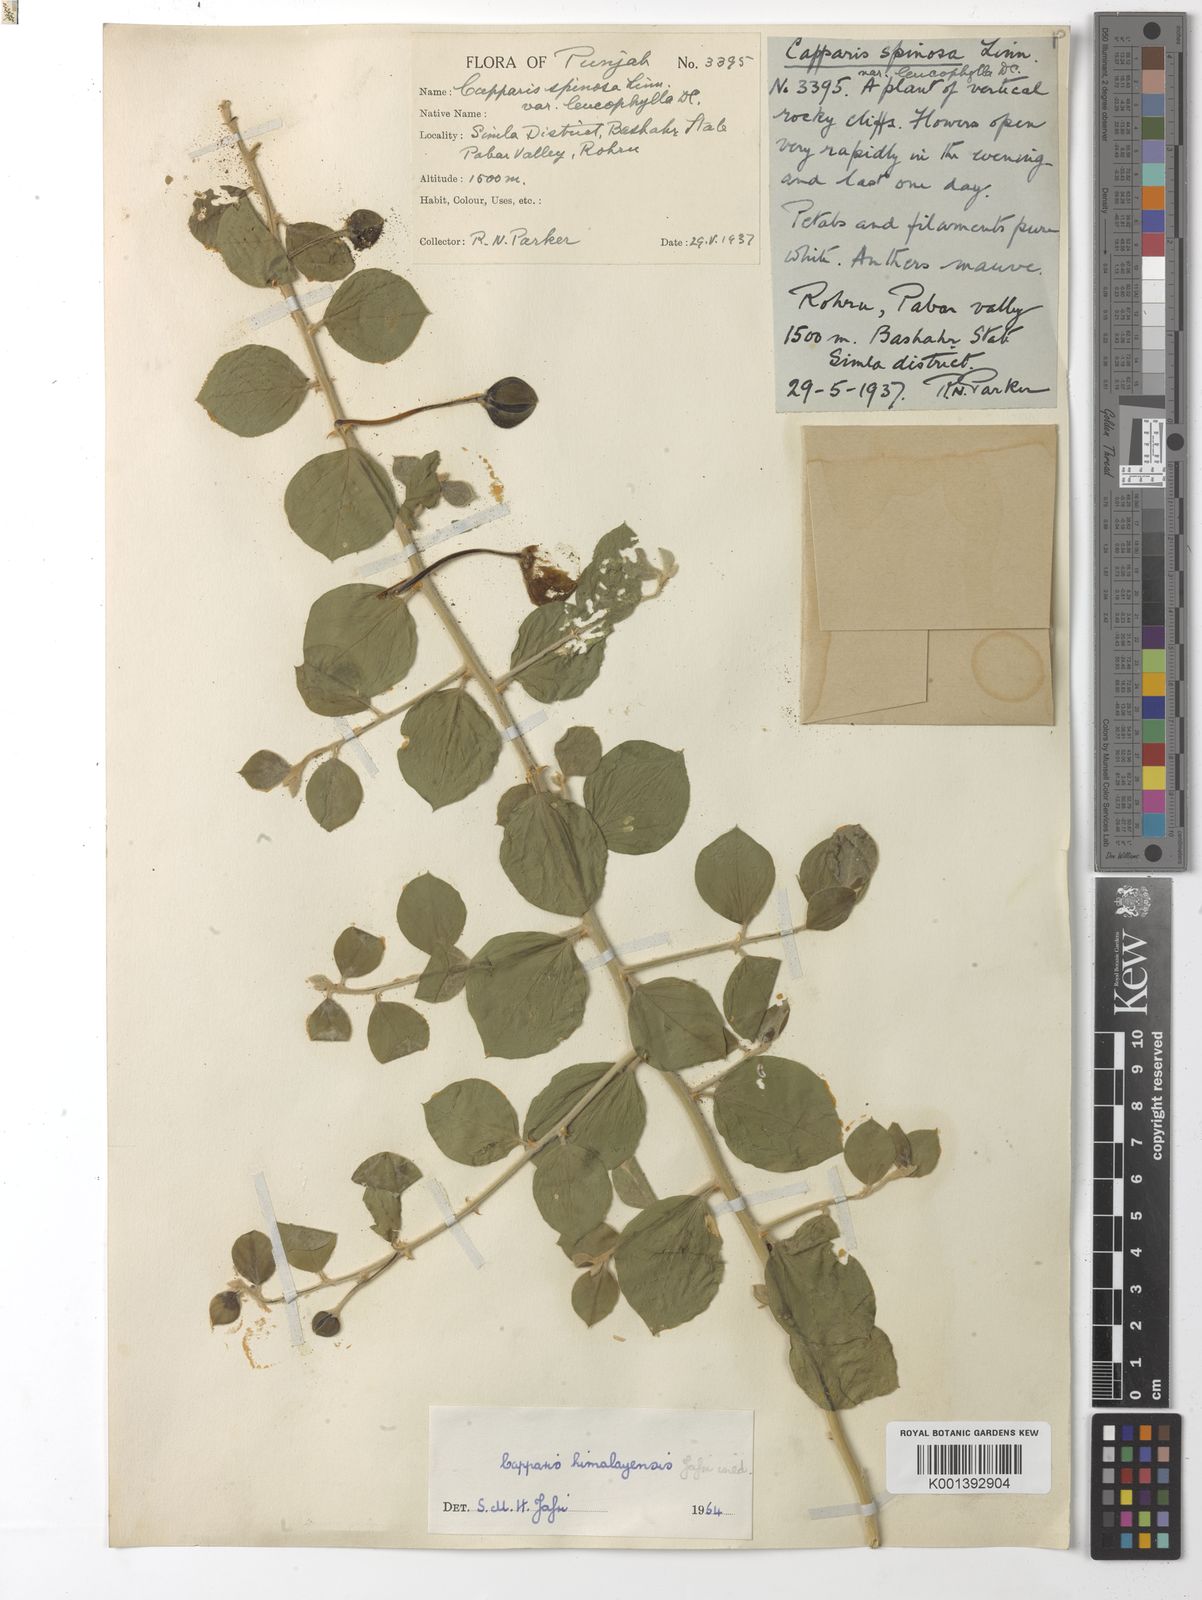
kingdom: Plantae
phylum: Tracheophyta
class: Magnoliopsida
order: Brassicales
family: Capparaceae
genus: Capparis
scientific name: Capparis spinosa
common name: Caper
